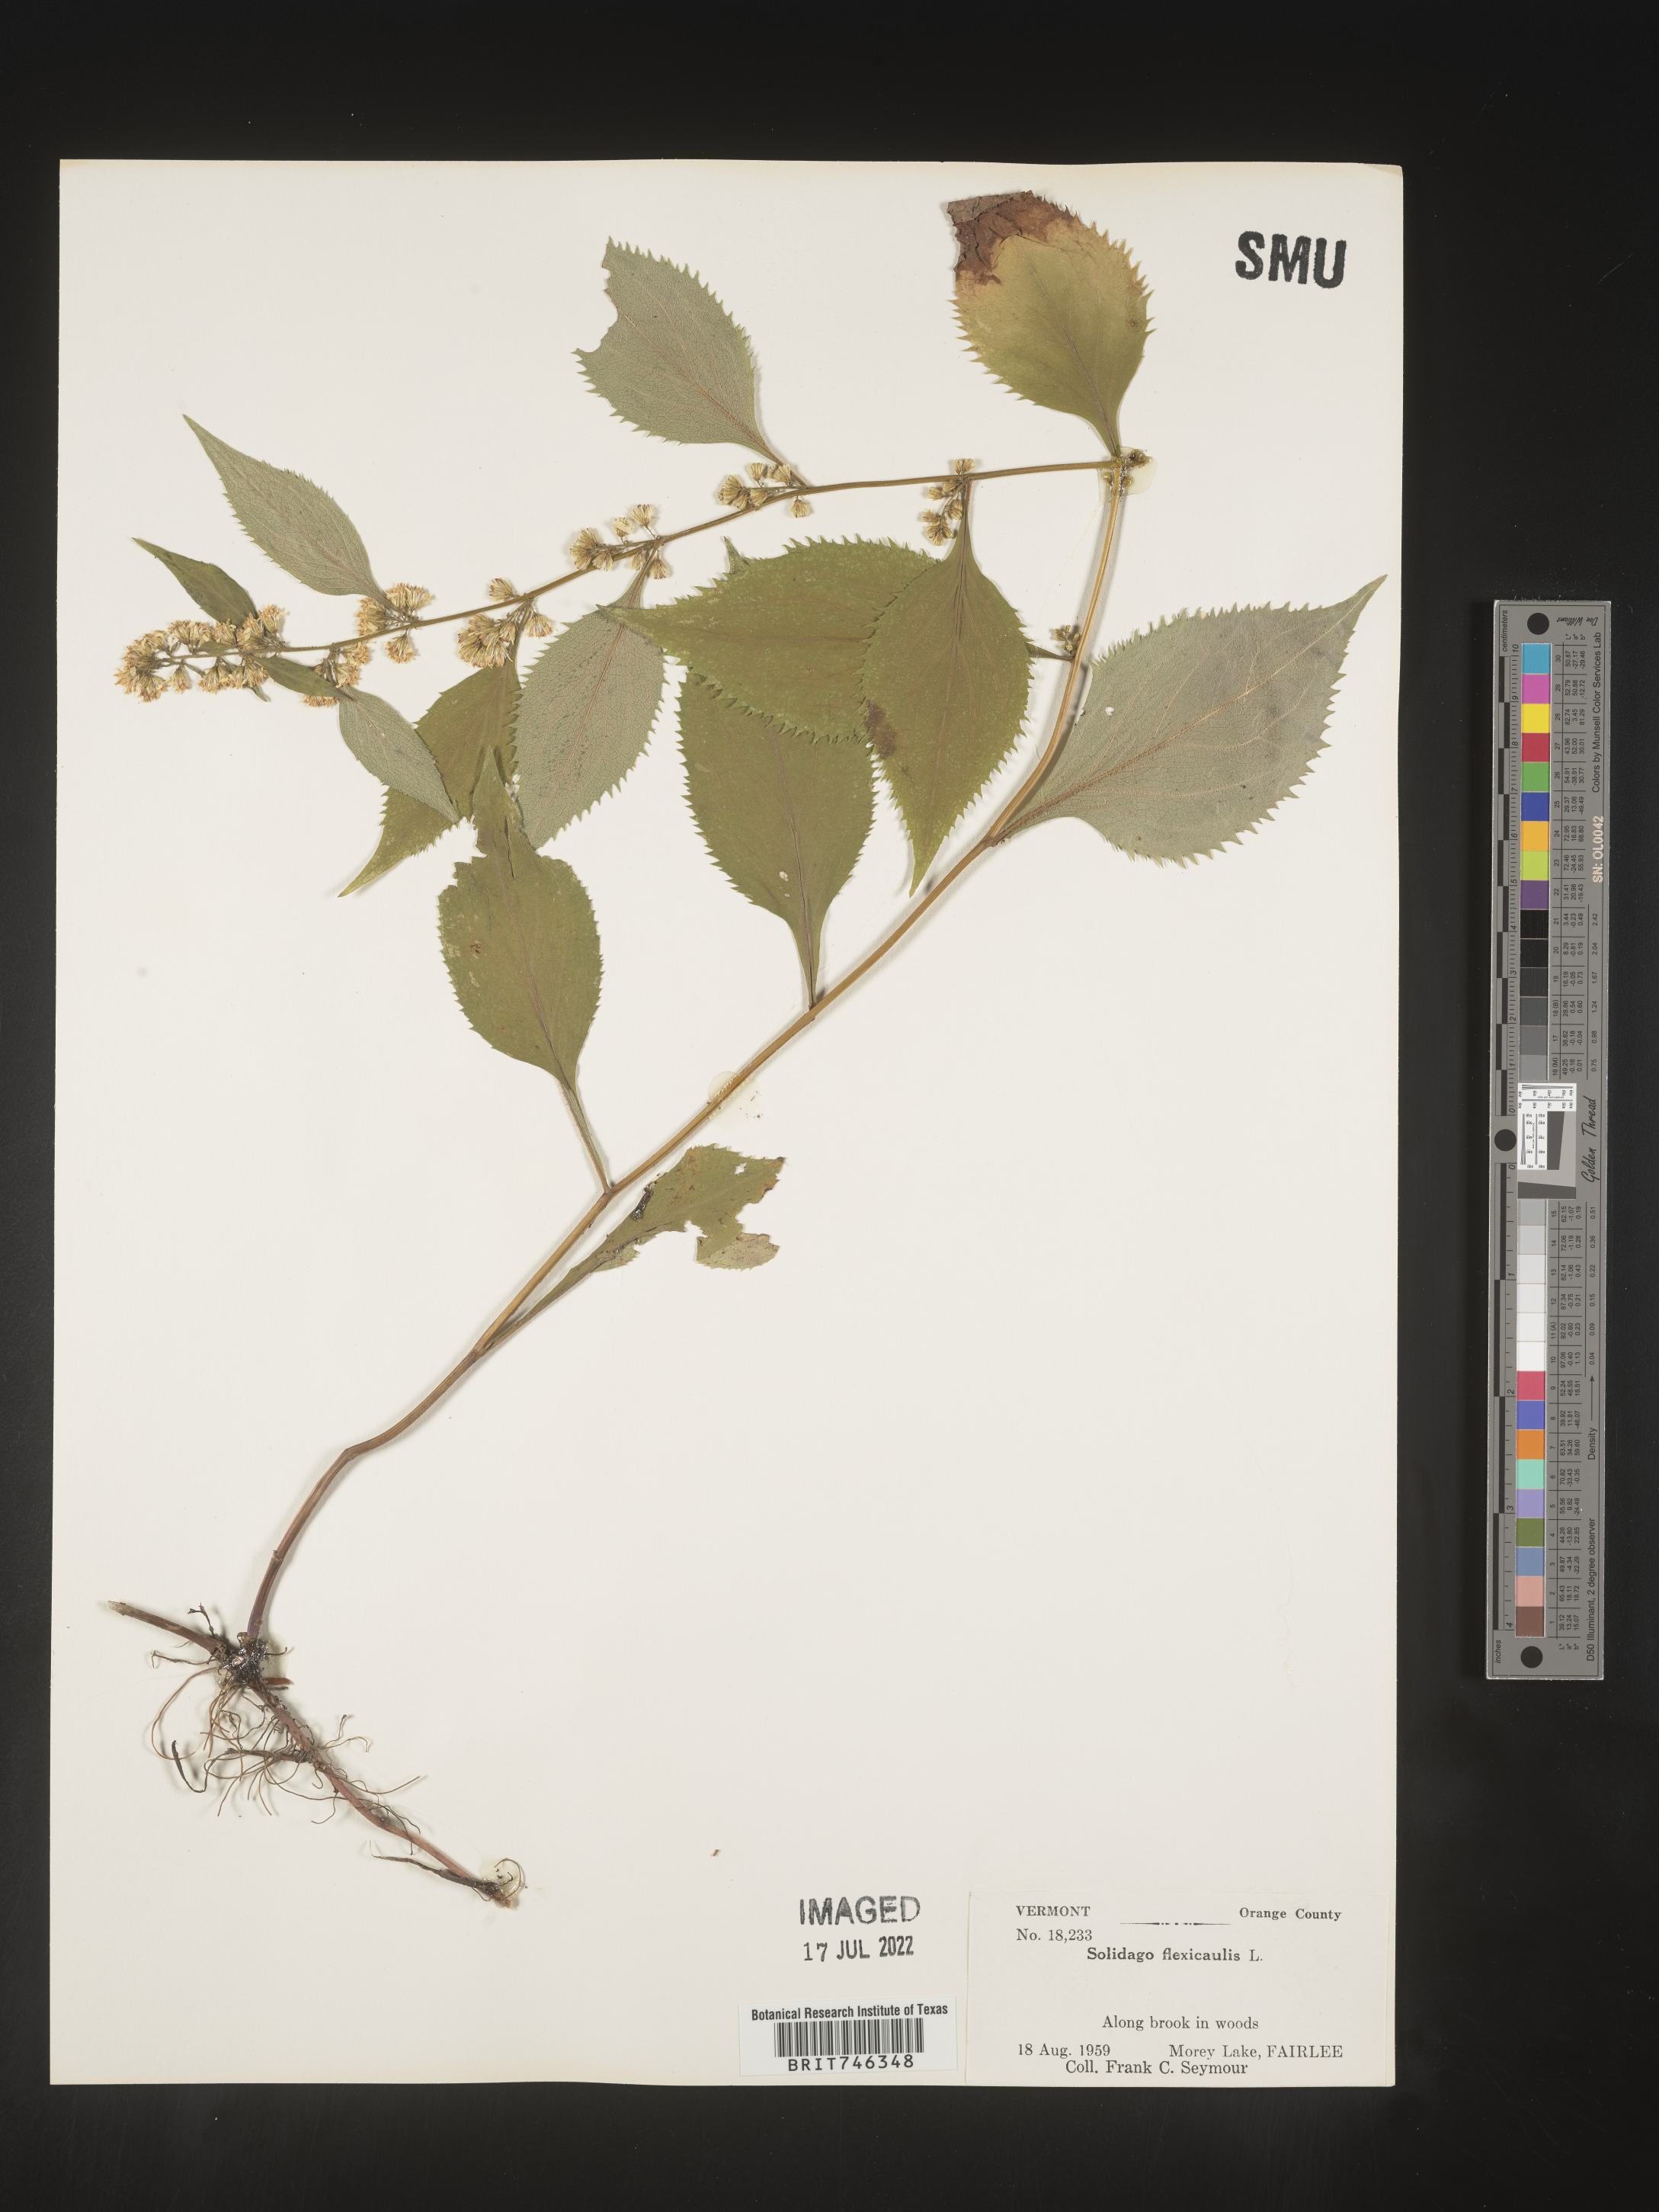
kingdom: Plantae
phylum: Tracheophyta
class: Magnoliopsida
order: Asterales
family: Asteraceae
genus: Solidago
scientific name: Solidago flexicaulis
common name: Zig-zag goldenrod
